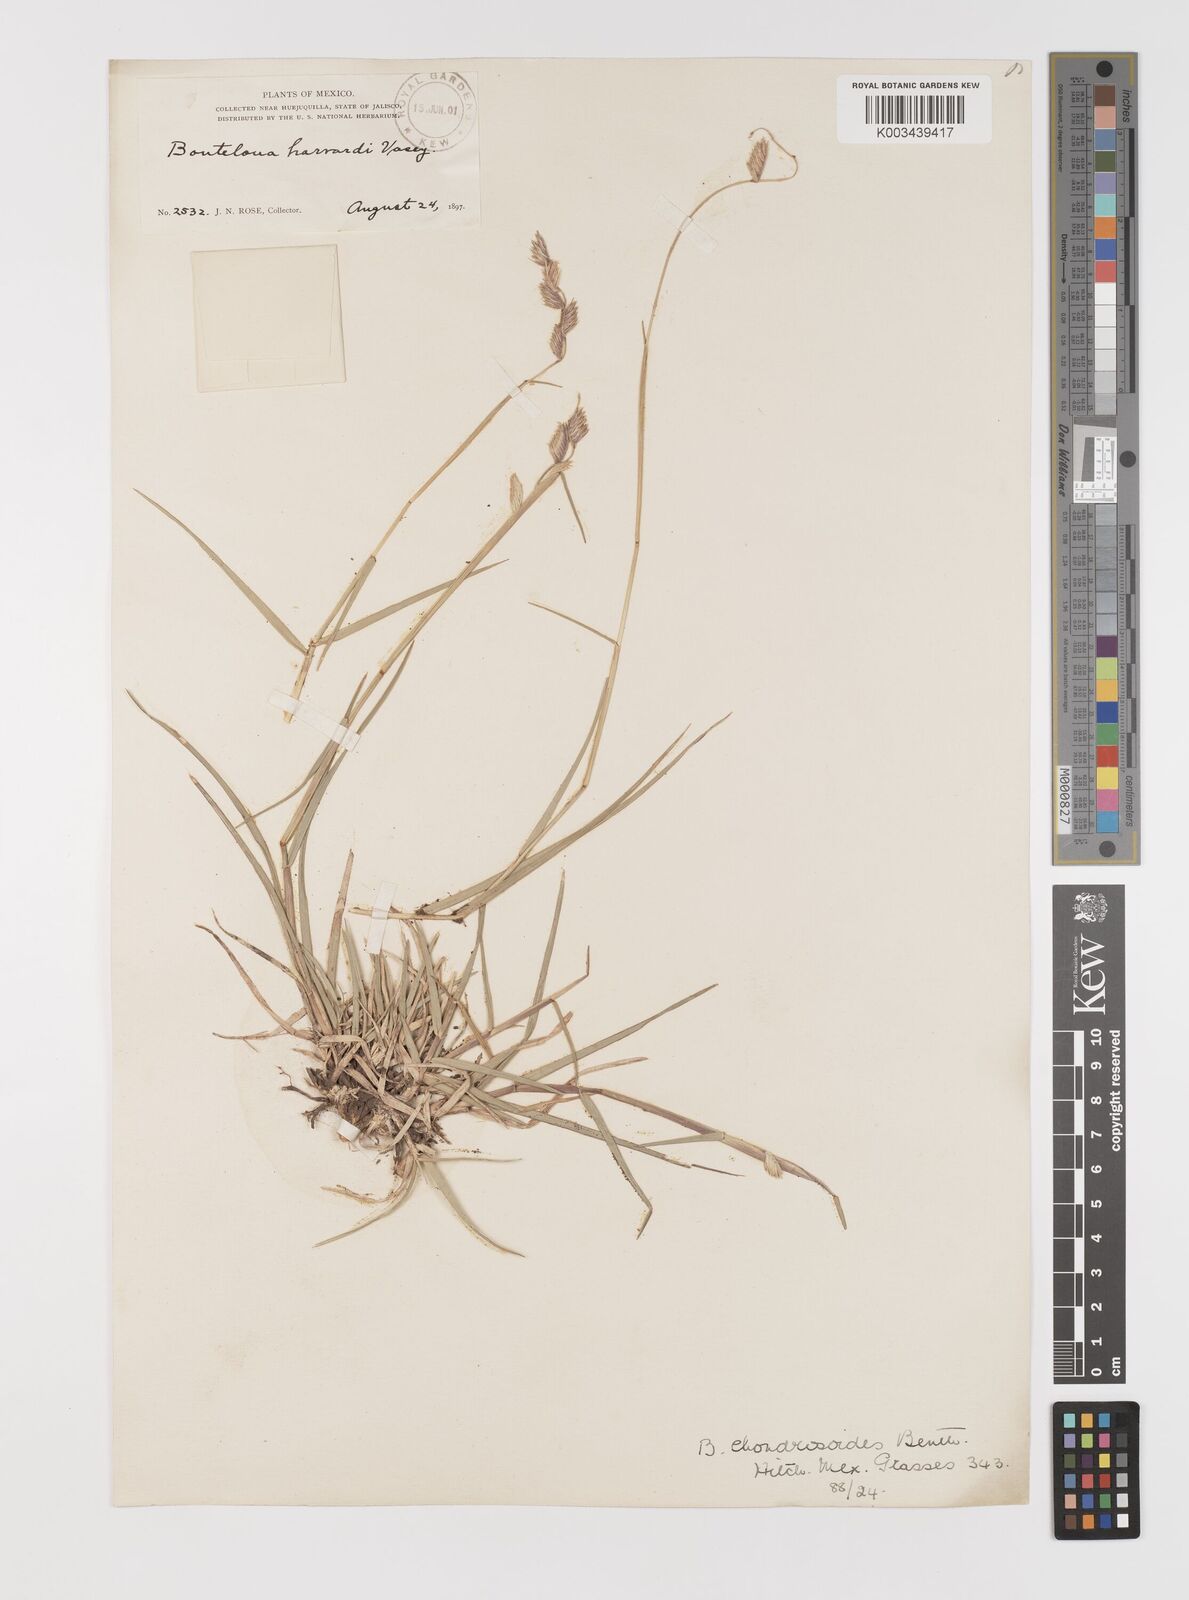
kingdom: Plantae
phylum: Tracheophyta
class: Liliopsida
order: Poales
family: Poaceae
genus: Bouteloua
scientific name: Bouteloua chondrosioides
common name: Sprucetop grama
